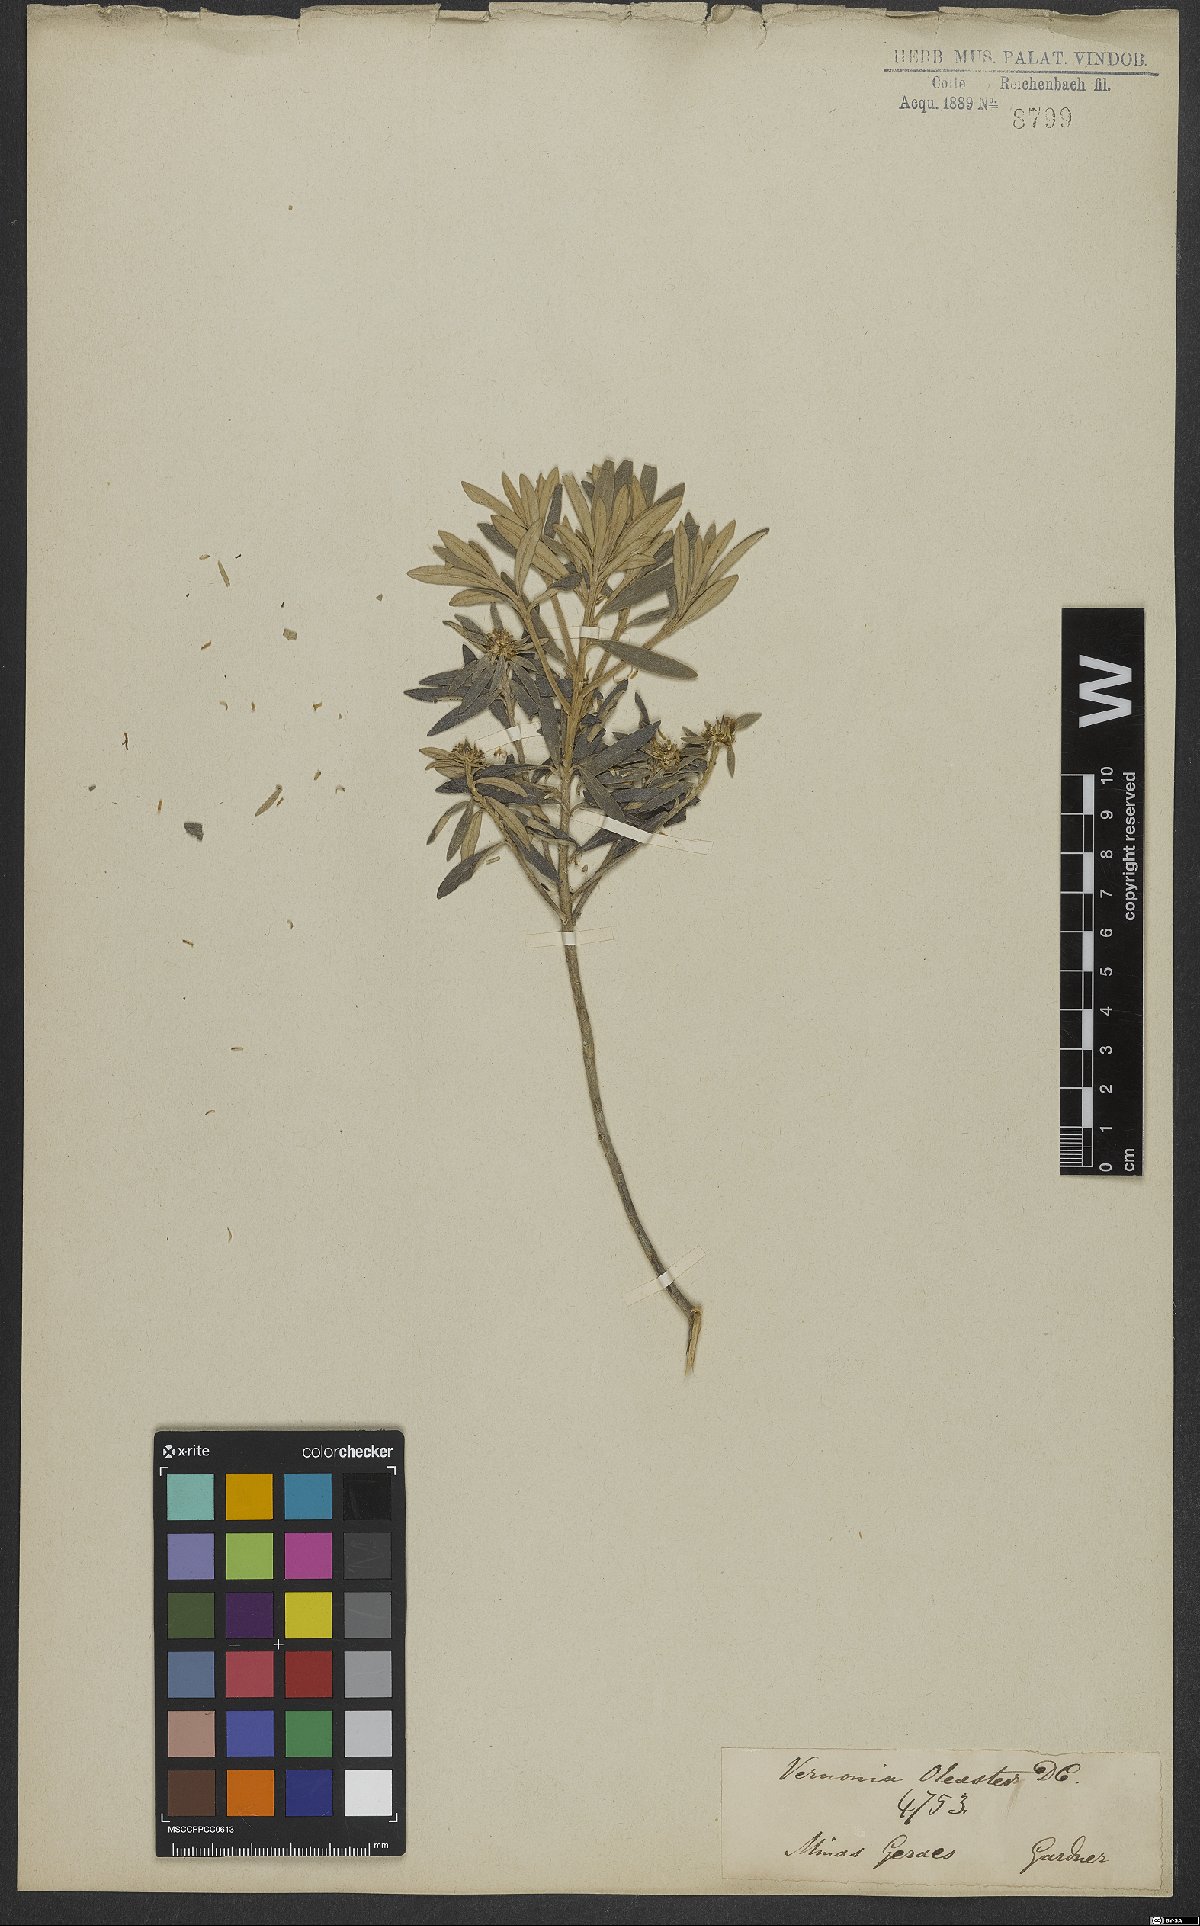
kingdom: Plantae
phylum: Tracheophyta
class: Magnoliopsida
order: Asterales
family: Asteraceae
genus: Piptolepis
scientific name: Piptolepis oleaster
